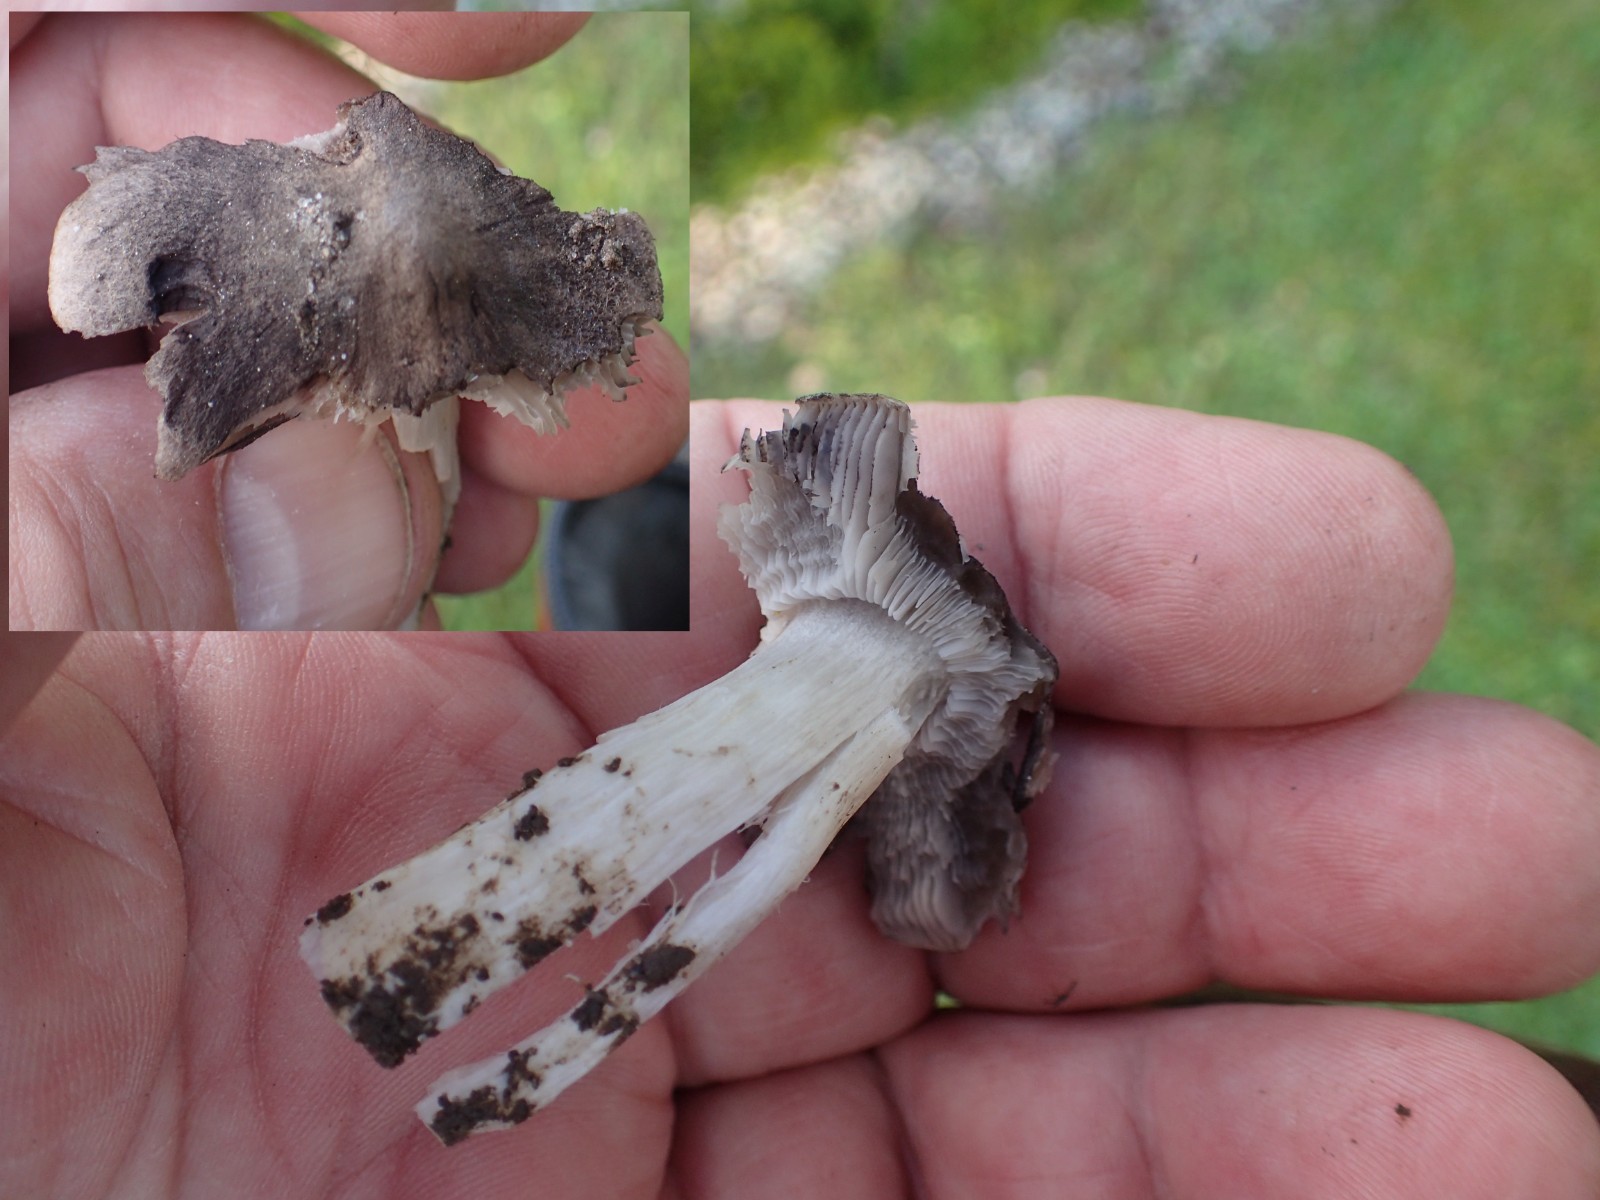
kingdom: Fungi
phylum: Basidiomycota
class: Agaricomycetes
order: Agaricales
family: Tricholomataceae
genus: Tricholoma
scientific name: Tricholoma terreum
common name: jordfarvet ridderhat
